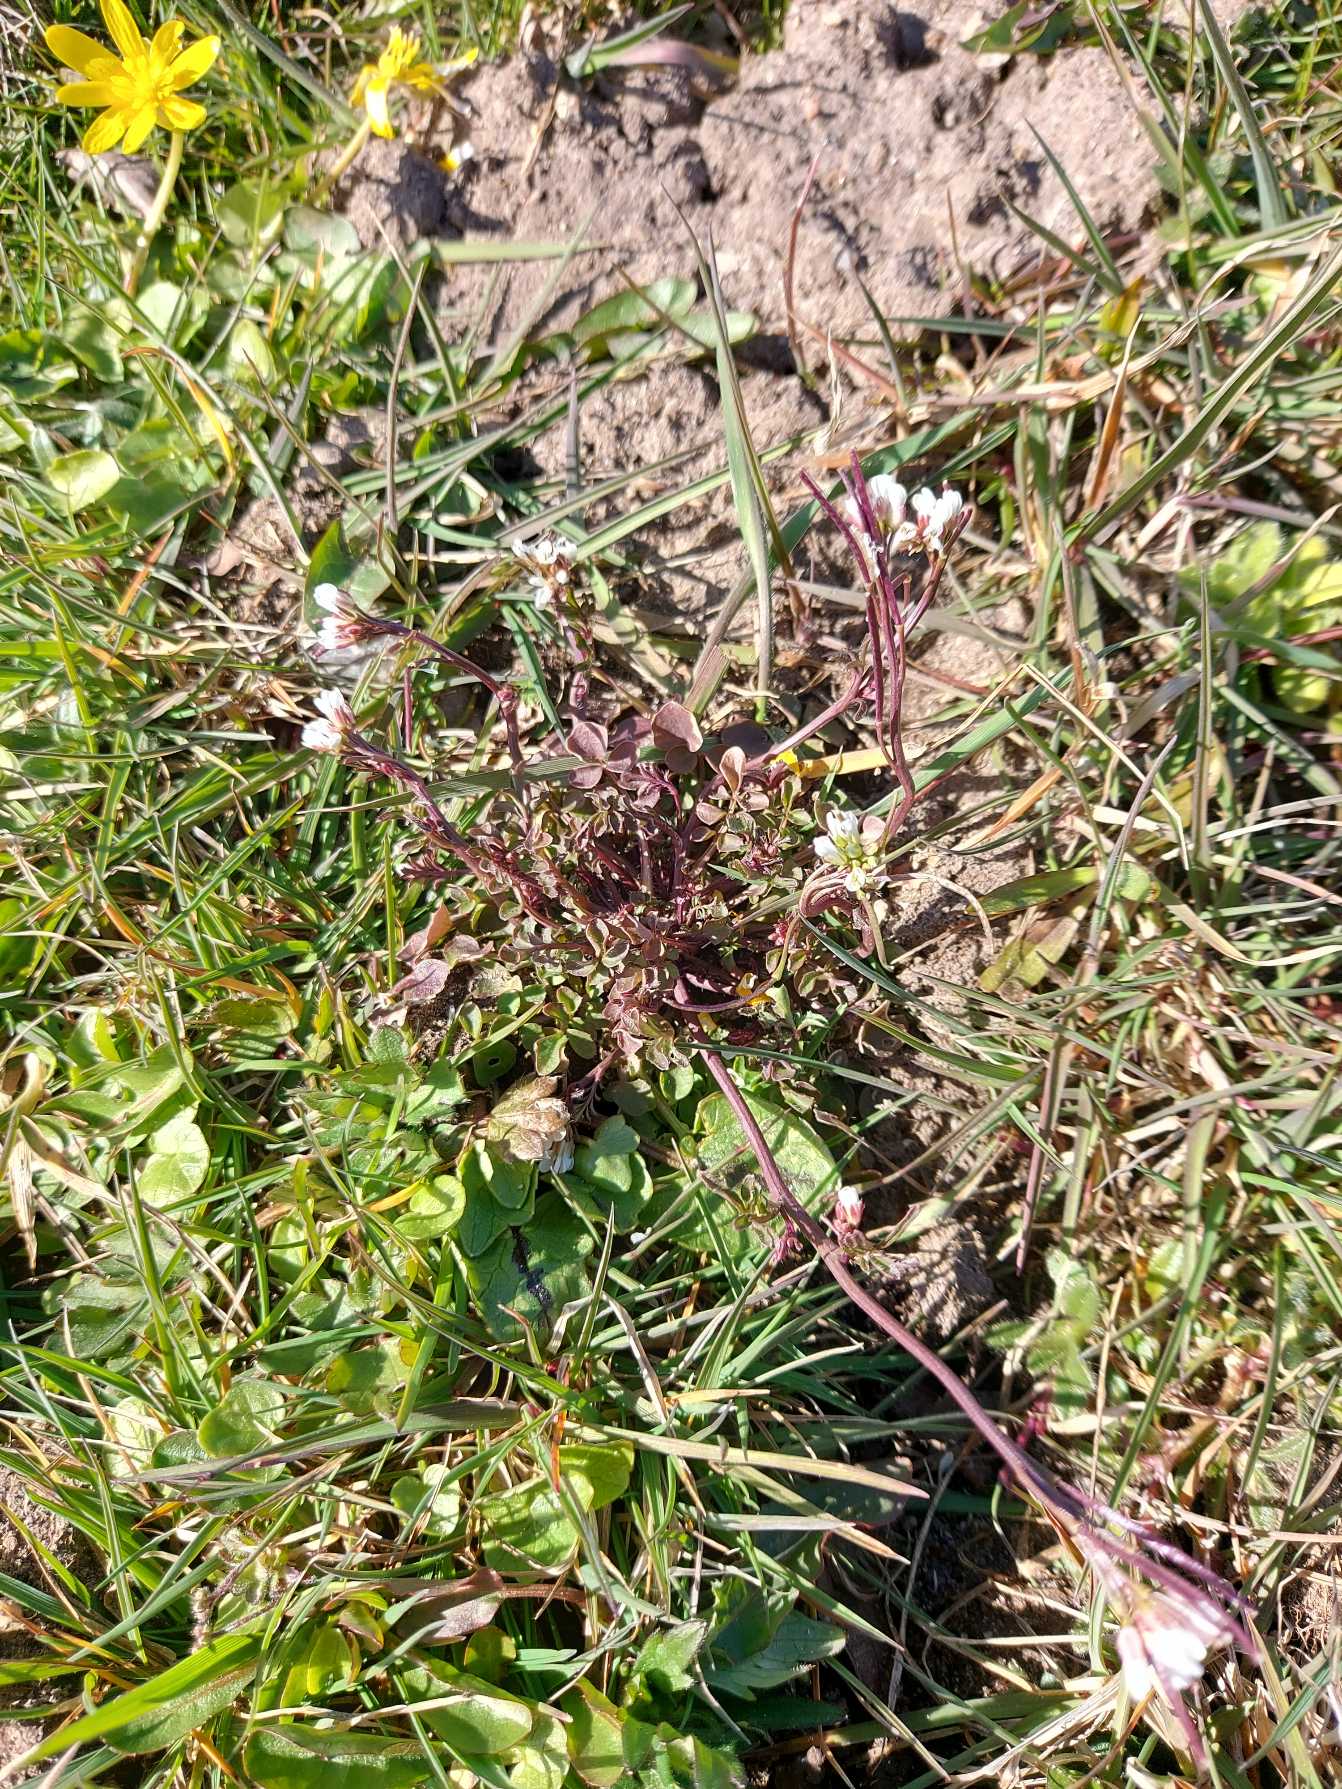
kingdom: Plantae
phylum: Tracheophyta
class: Magnoliopsida
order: Brassicales
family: Brassicaceae
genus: Cardamine
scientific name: Cardamine hirsuta
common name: Roset-springklap
